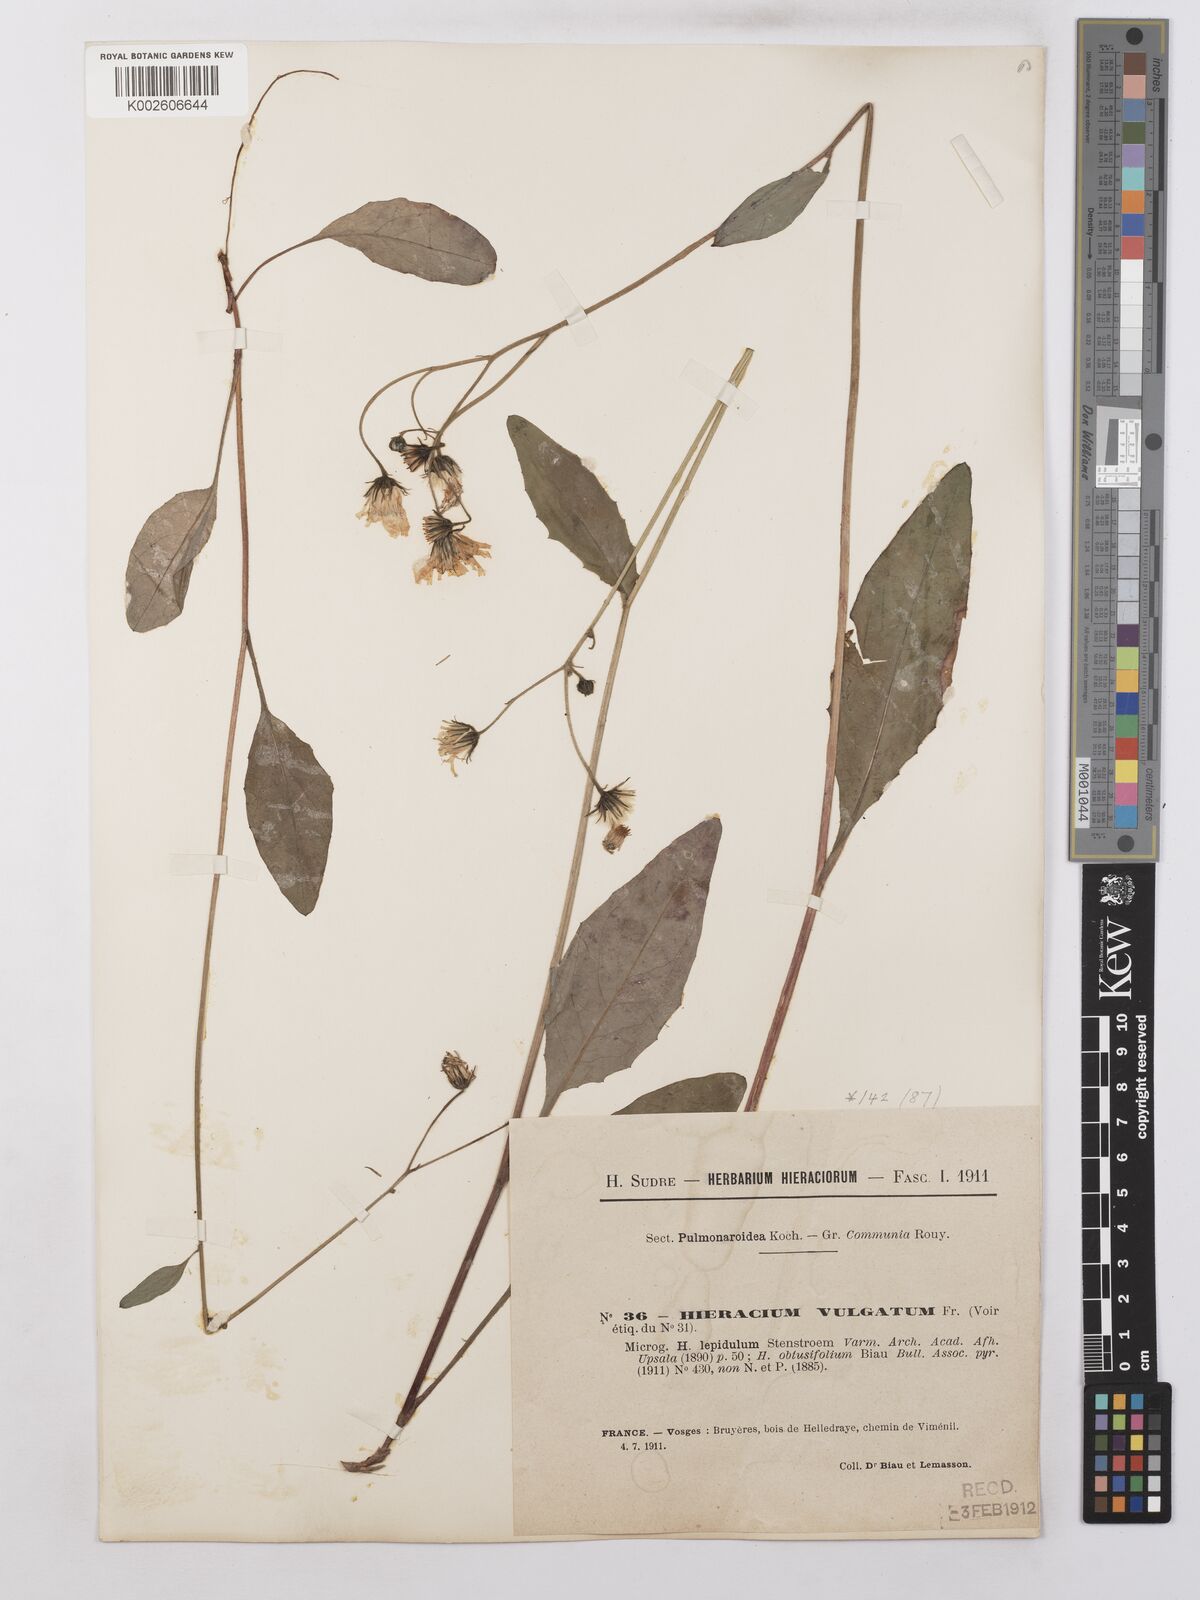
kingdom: Plantae
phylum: Tracheophyta
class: Magnoliopsida
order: Asterales
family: Asteraceae
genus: Hieracium
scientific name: Hieracium lachenalii
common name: Common hawkweed
